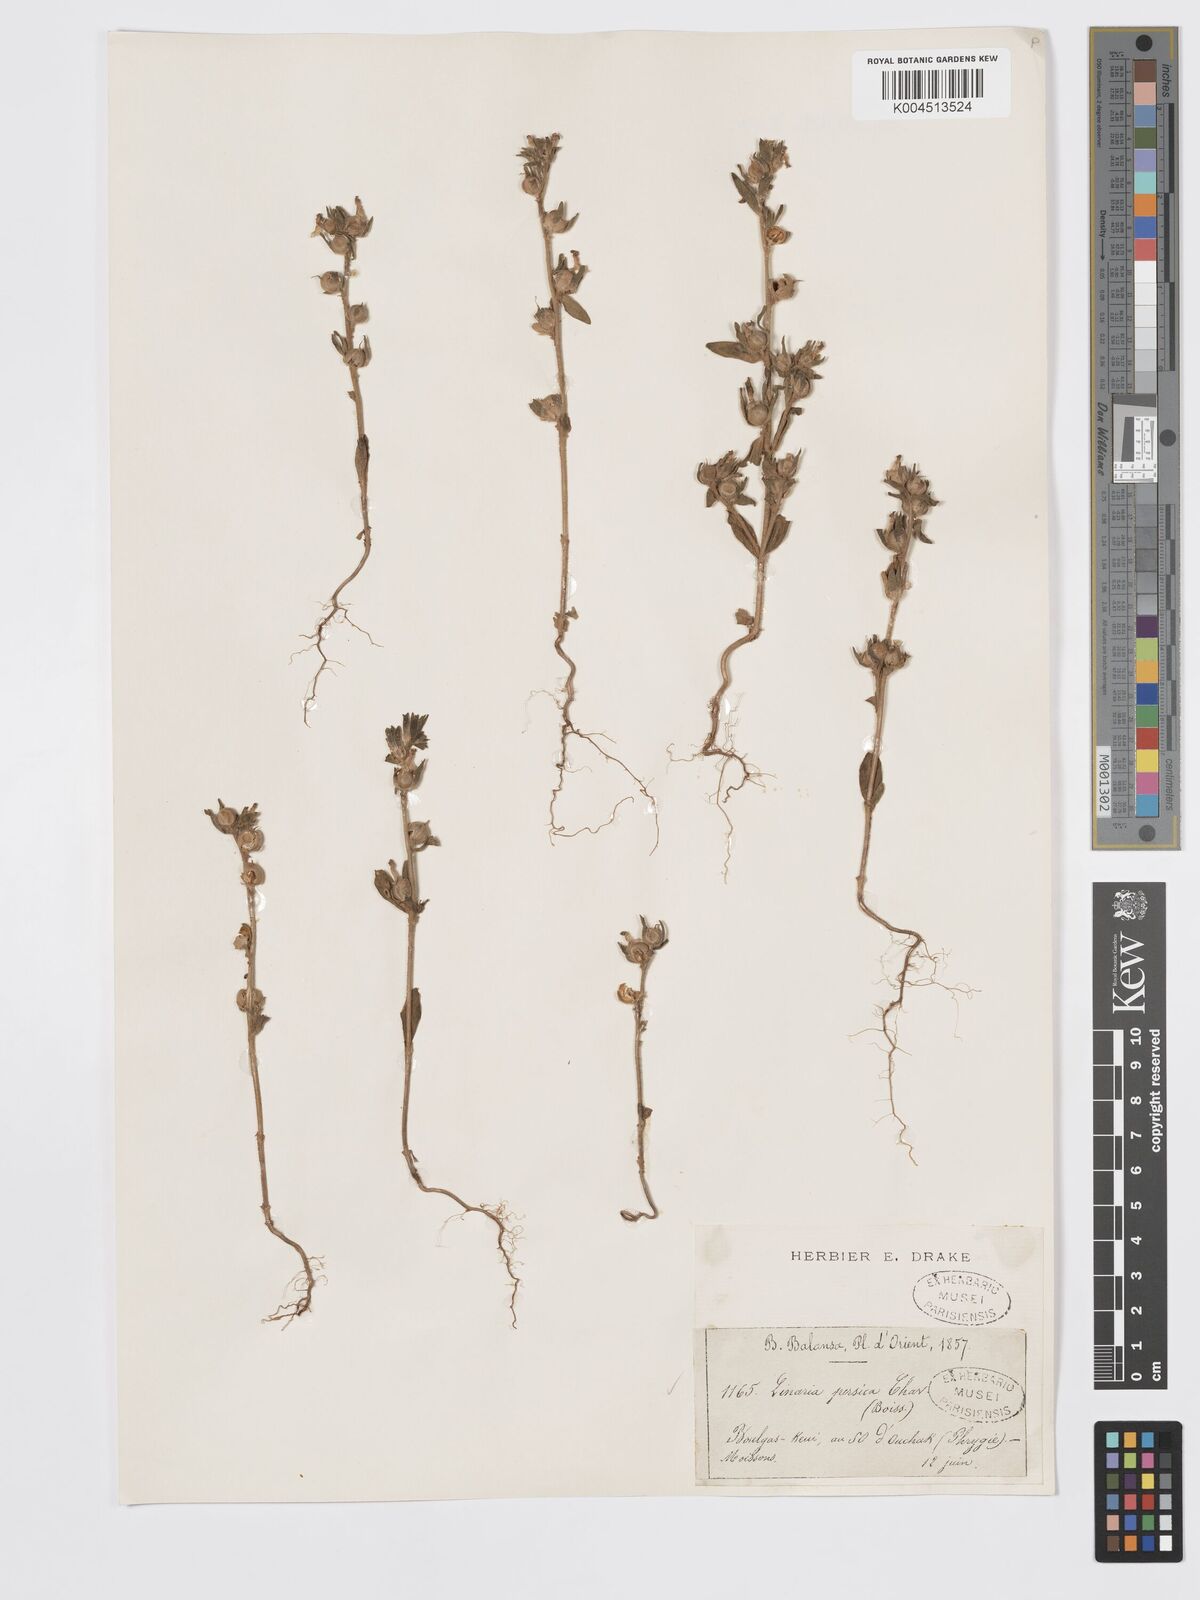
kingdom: Plantae
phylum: Tracheophyta
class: Magnoliopsida
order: Lamiales
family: Plantaginaceae
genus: Chaenorhinum
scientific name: Chaenorhinum calycinum
